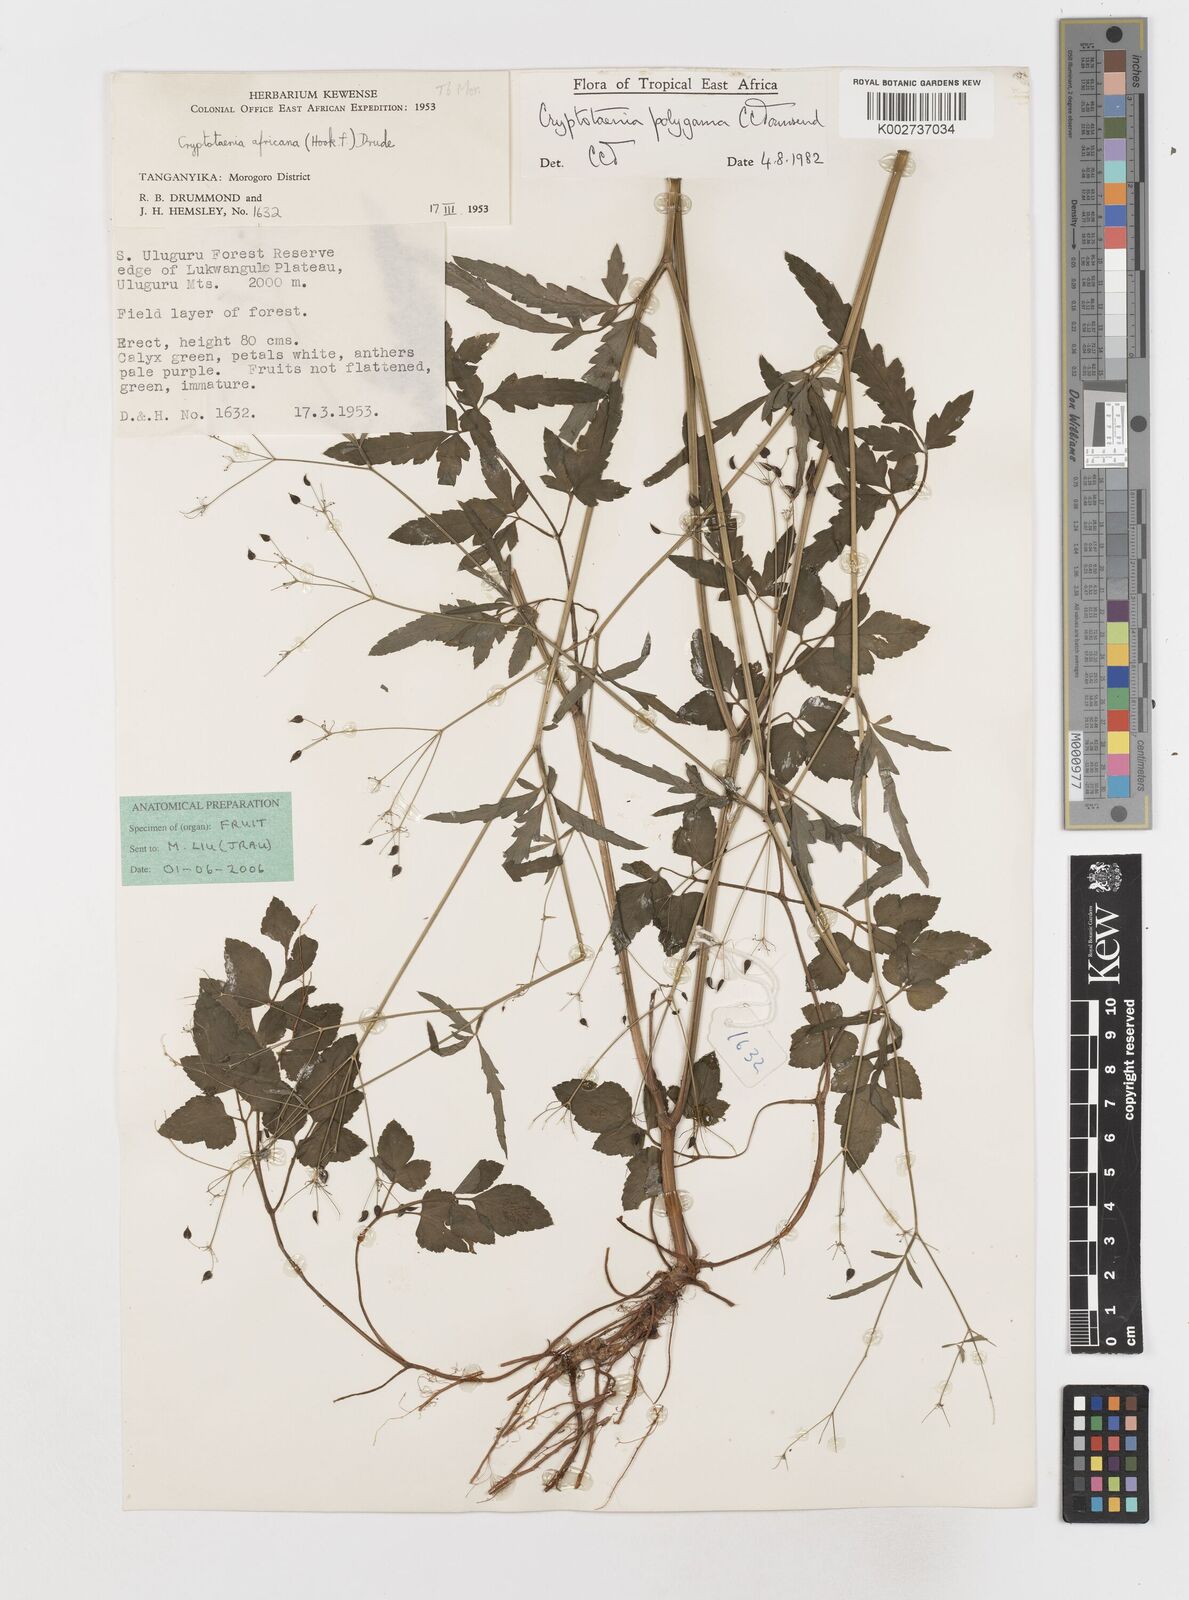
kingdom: Plantae
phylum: Tracheophyta
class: Magnoliopsida
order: Apiales
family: Apiaceae
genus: Cryptotaenia
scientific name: Cryptotaenia polygama
